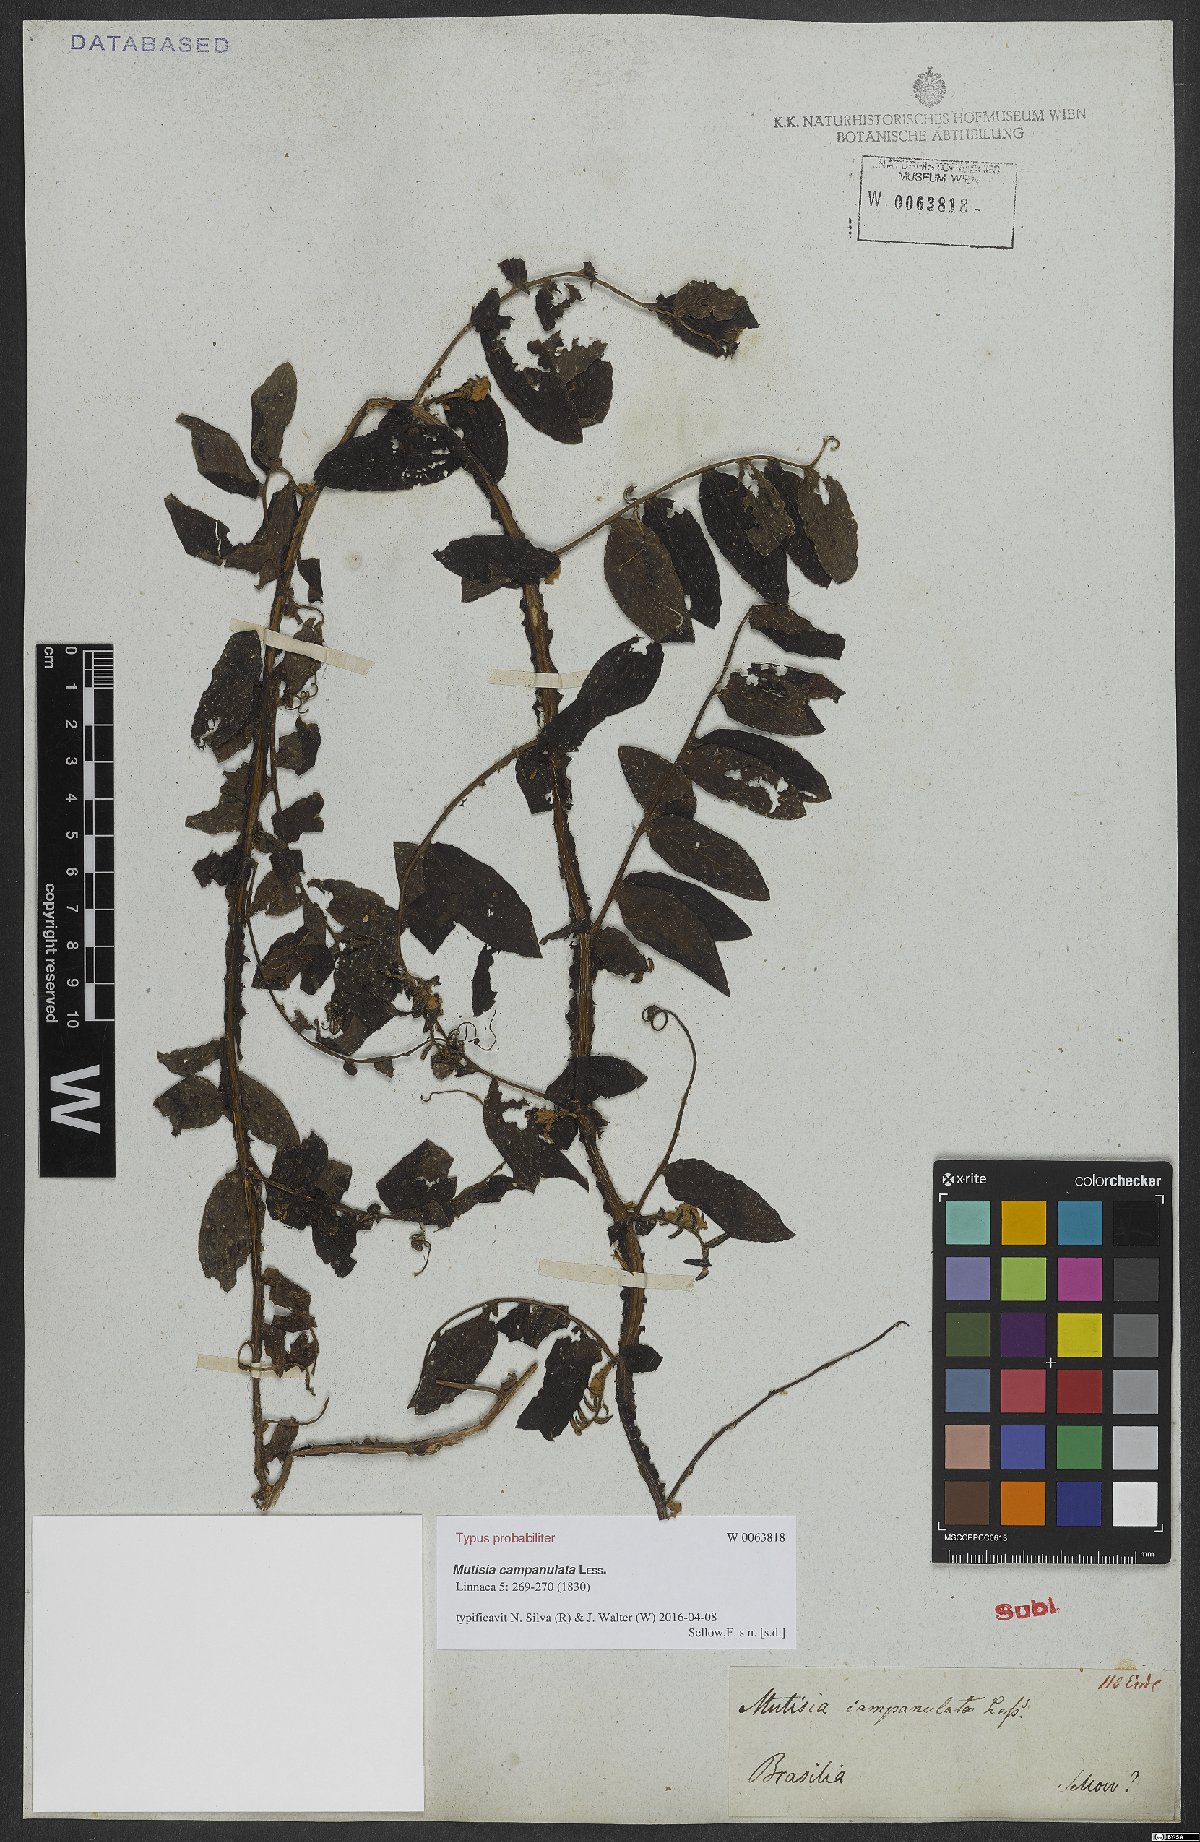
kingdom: Plantae
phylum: Tracheophyta
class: Magnoliopsida
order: Asterales
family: Asteraceae
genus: Mutisia
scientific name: Mutisia campanulata
